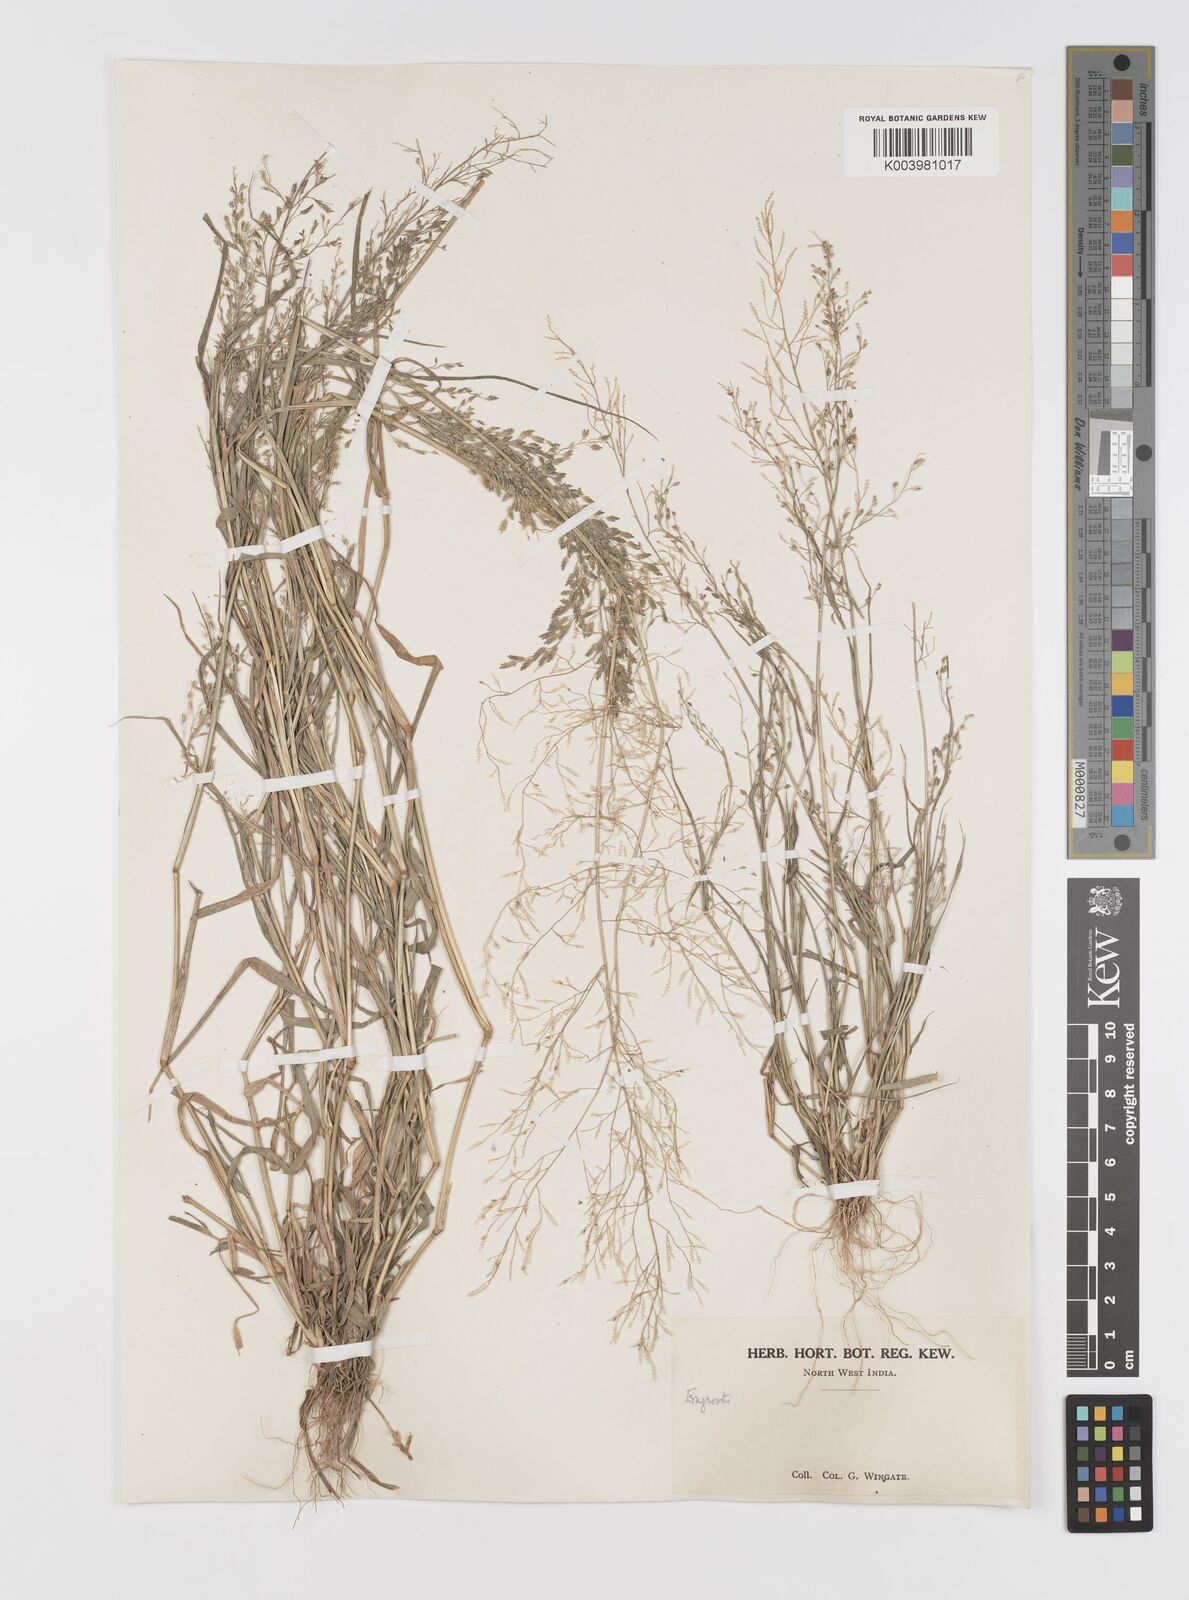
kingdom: Plantae
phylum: Tracheophyta
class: Liliopsida
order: Poales
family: Poaceae
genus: Eragrostis
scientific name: Eragrostis minor
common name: Small love-grass
